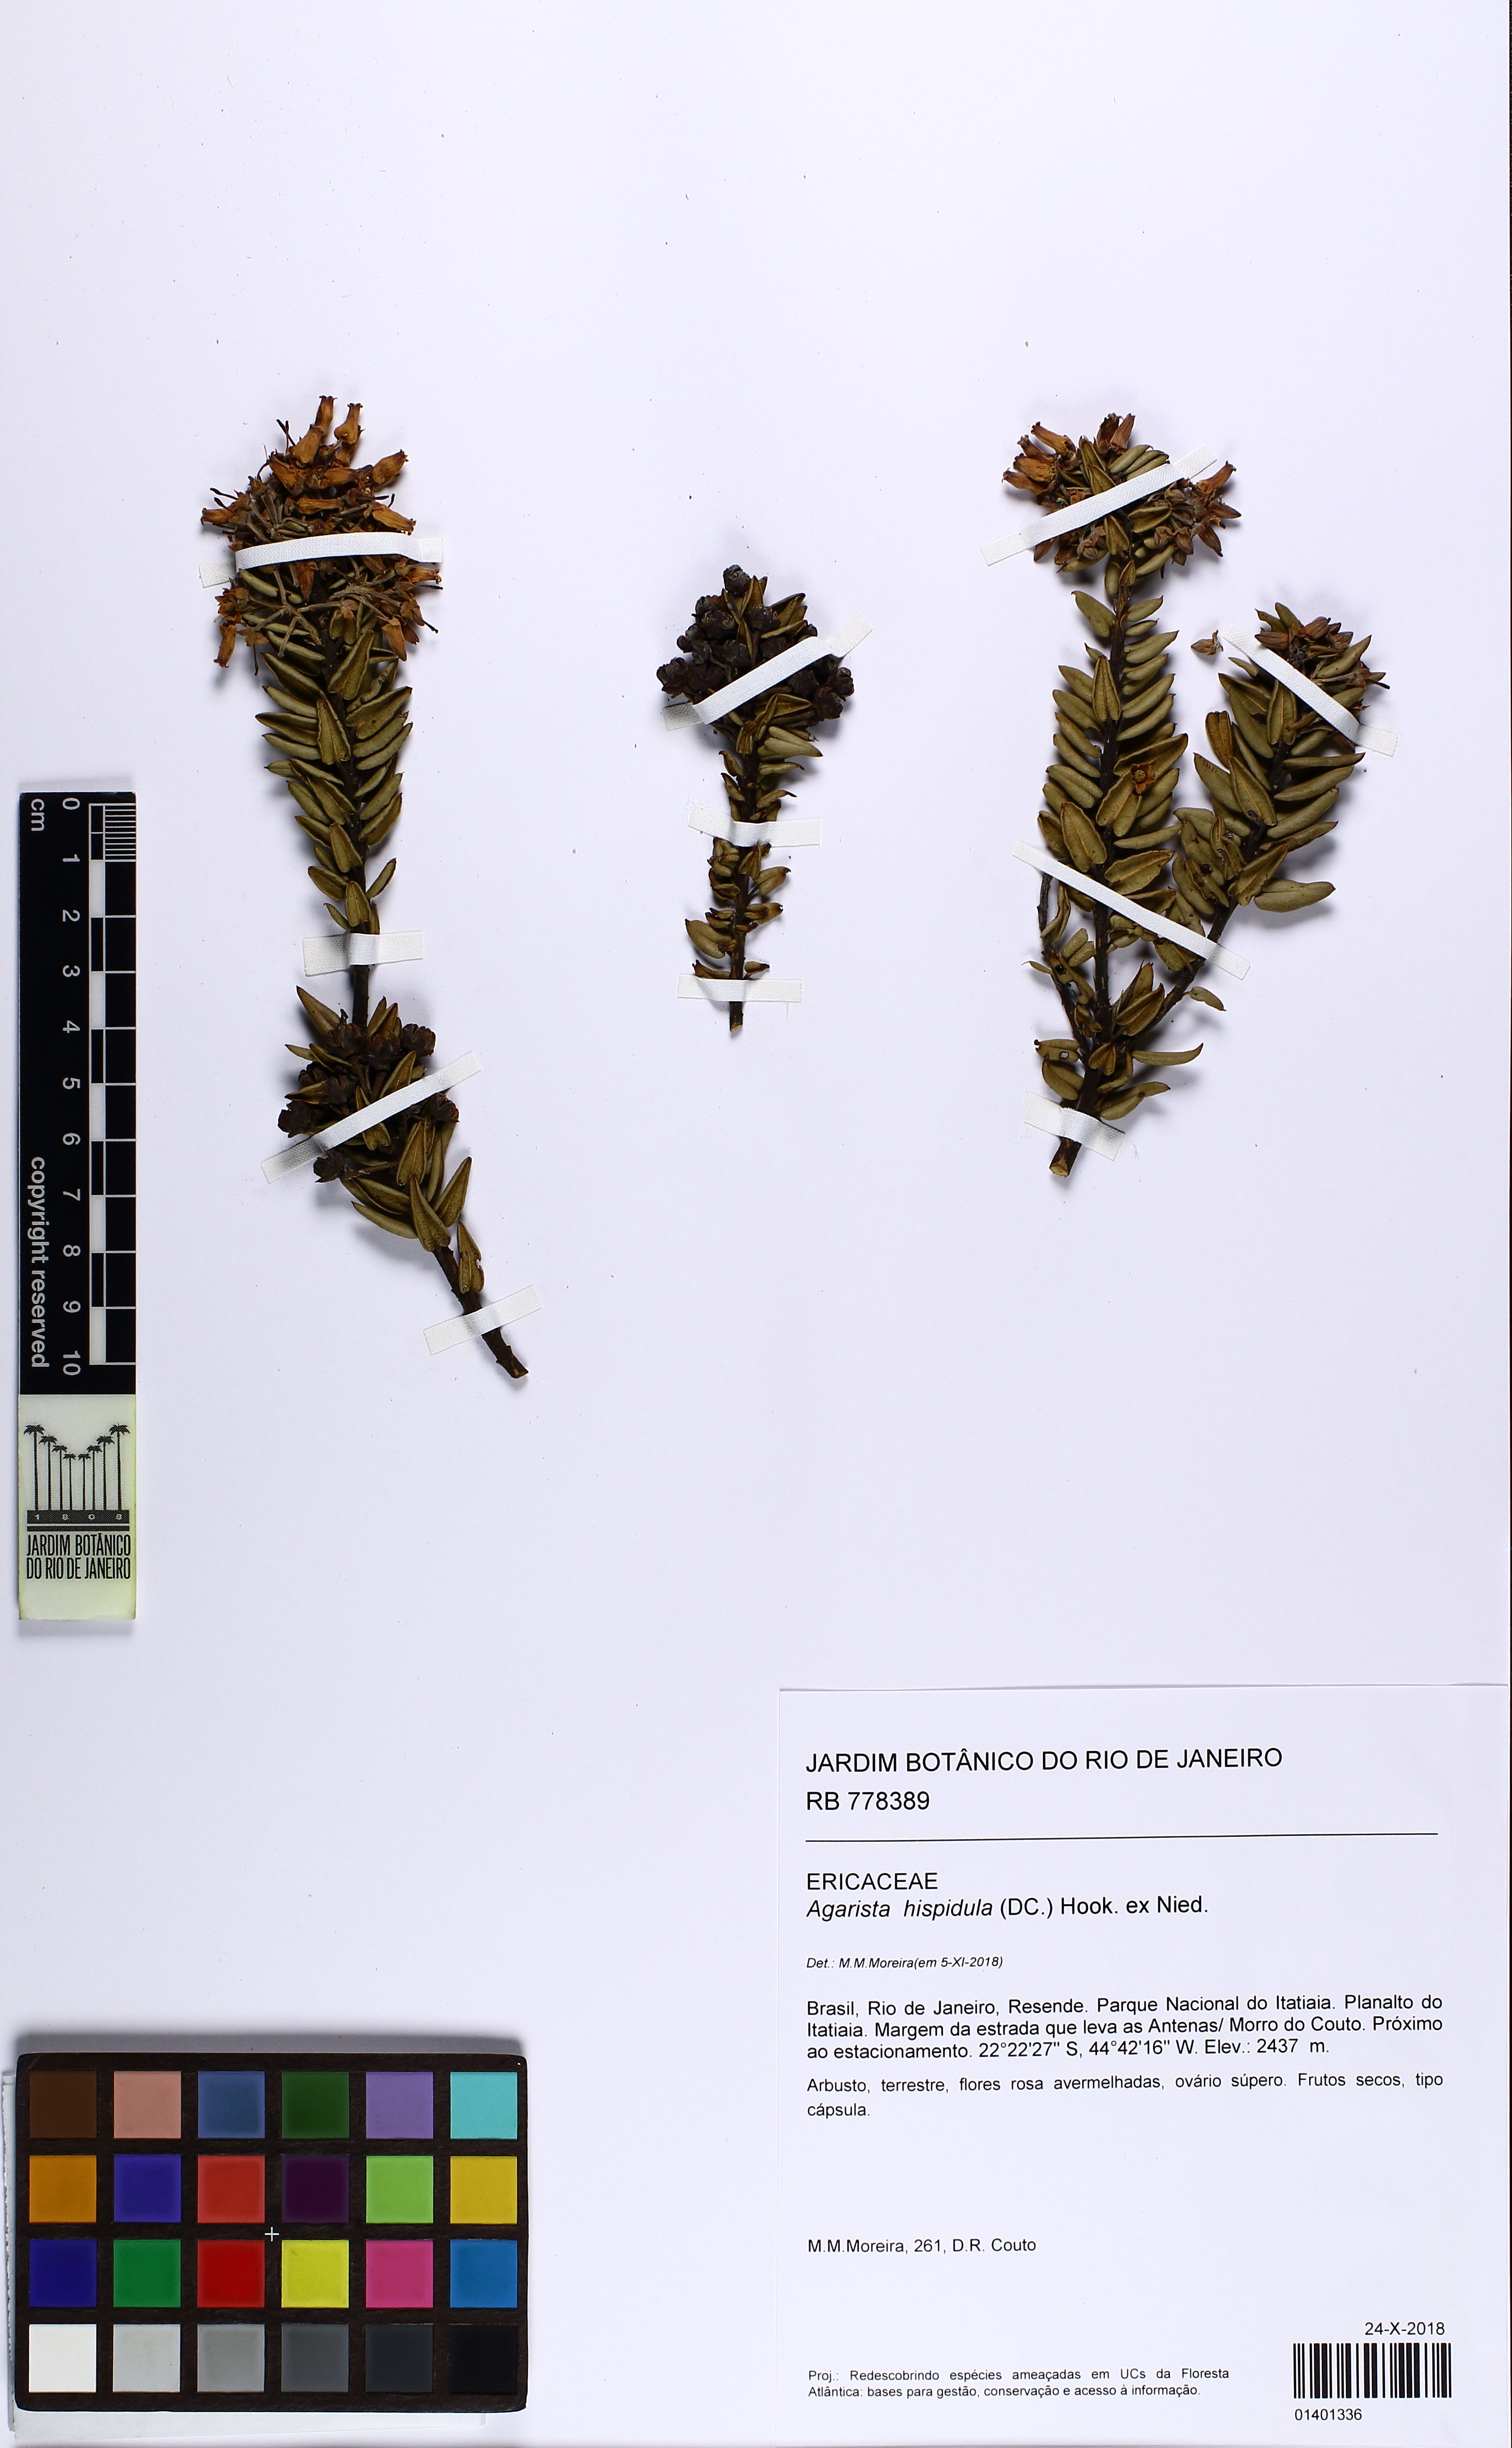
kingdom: Plantae
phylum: Tracheophyta
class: Magnoliopsida
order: Ericales
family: Ericaceae
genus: Agarista
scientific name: Agarista hispidula
